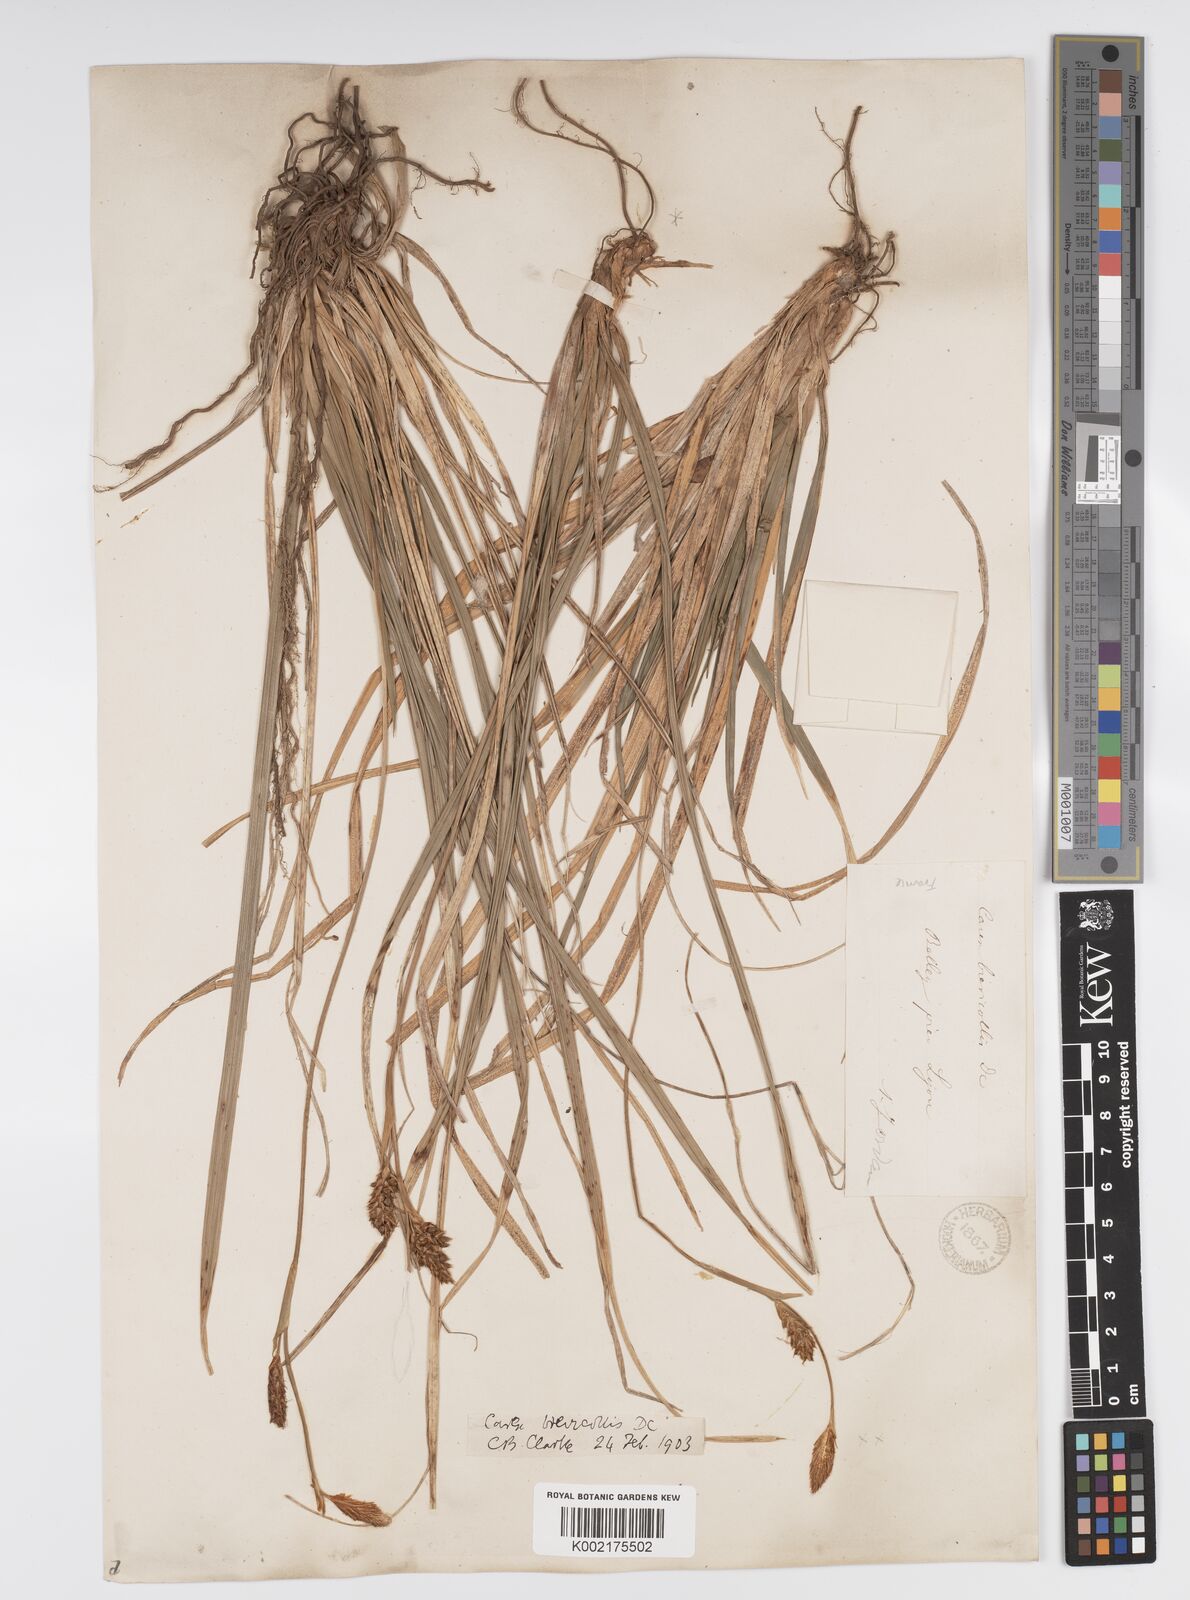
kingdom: Plantae
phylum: Tracheophyta
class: Liliopsida
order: Poales
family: Cyperaceae
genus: Carex
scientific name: Carex brevicollis
